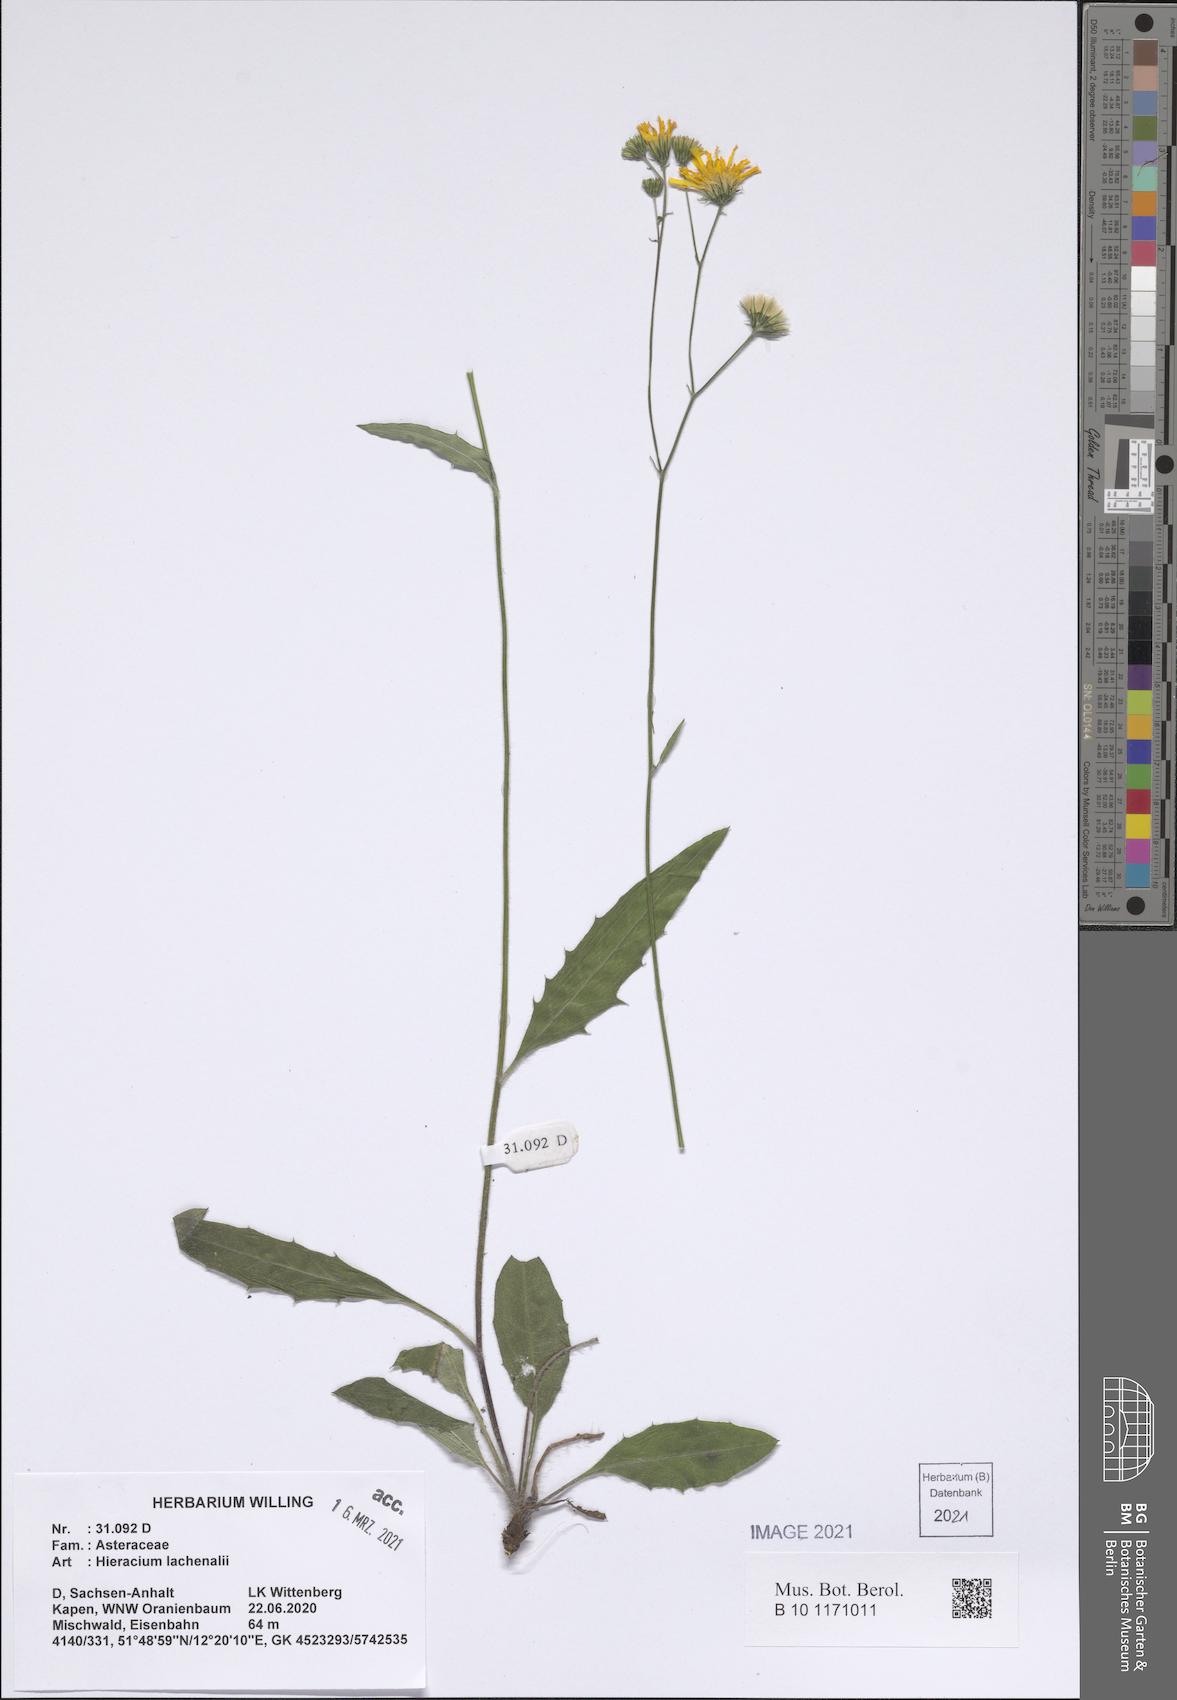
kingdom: Plantae
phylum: Tracheophyta
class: Magnoliopsida
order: Asterales
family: Asteraceae
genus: Hieracium
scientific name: Hieracium lachenalii
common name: Common hawkweed
